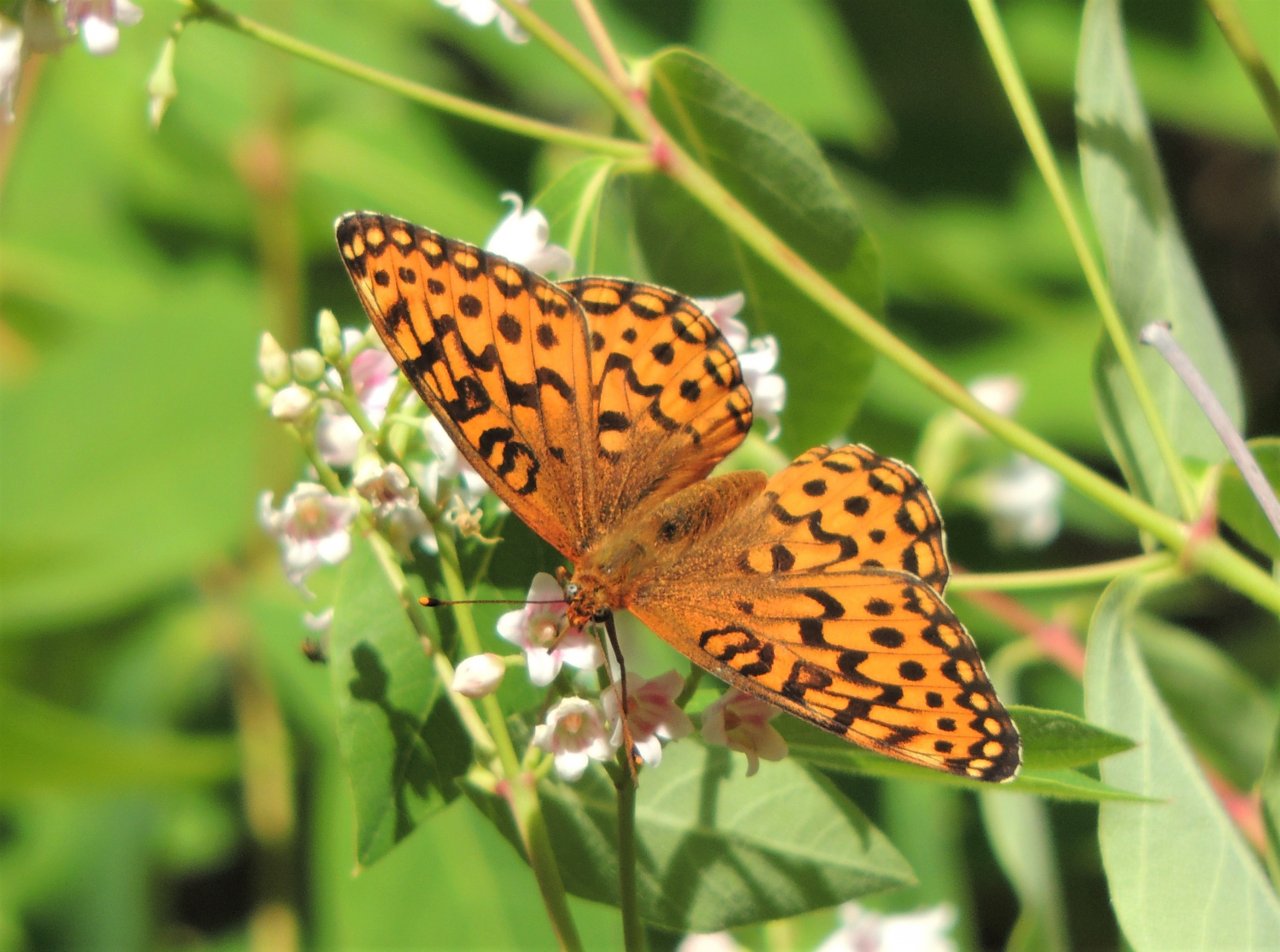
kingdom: Animalia
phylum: Arthropoda
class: Insecta
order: Lepidoptera
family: Nymphalidae
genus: Speyeria
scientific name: Speyeria hydaspe
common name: Hydaspe Fritillary
